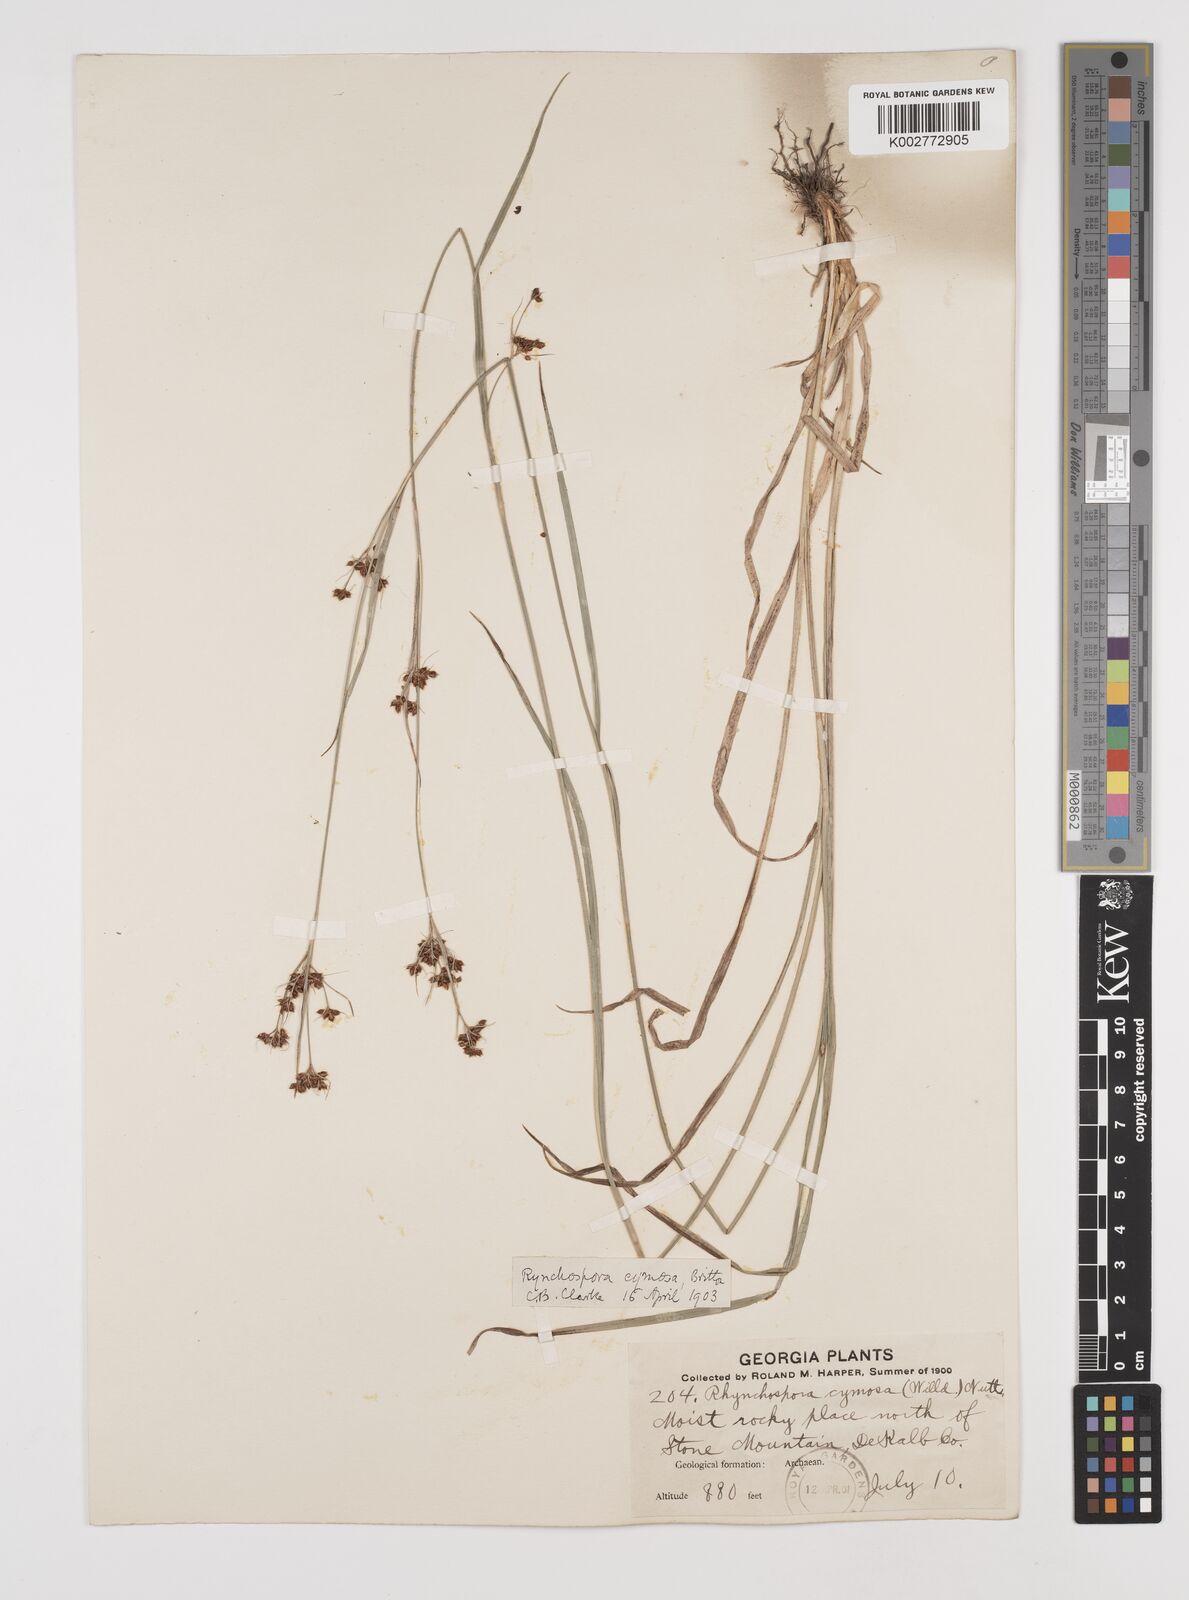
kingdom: Plantae
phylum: Tracheophyta
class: Liliopsida
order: Poales
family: Cyperaceae
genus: Scirpus
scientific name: Scirpus polyphyllus
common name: Leafy bulrush
